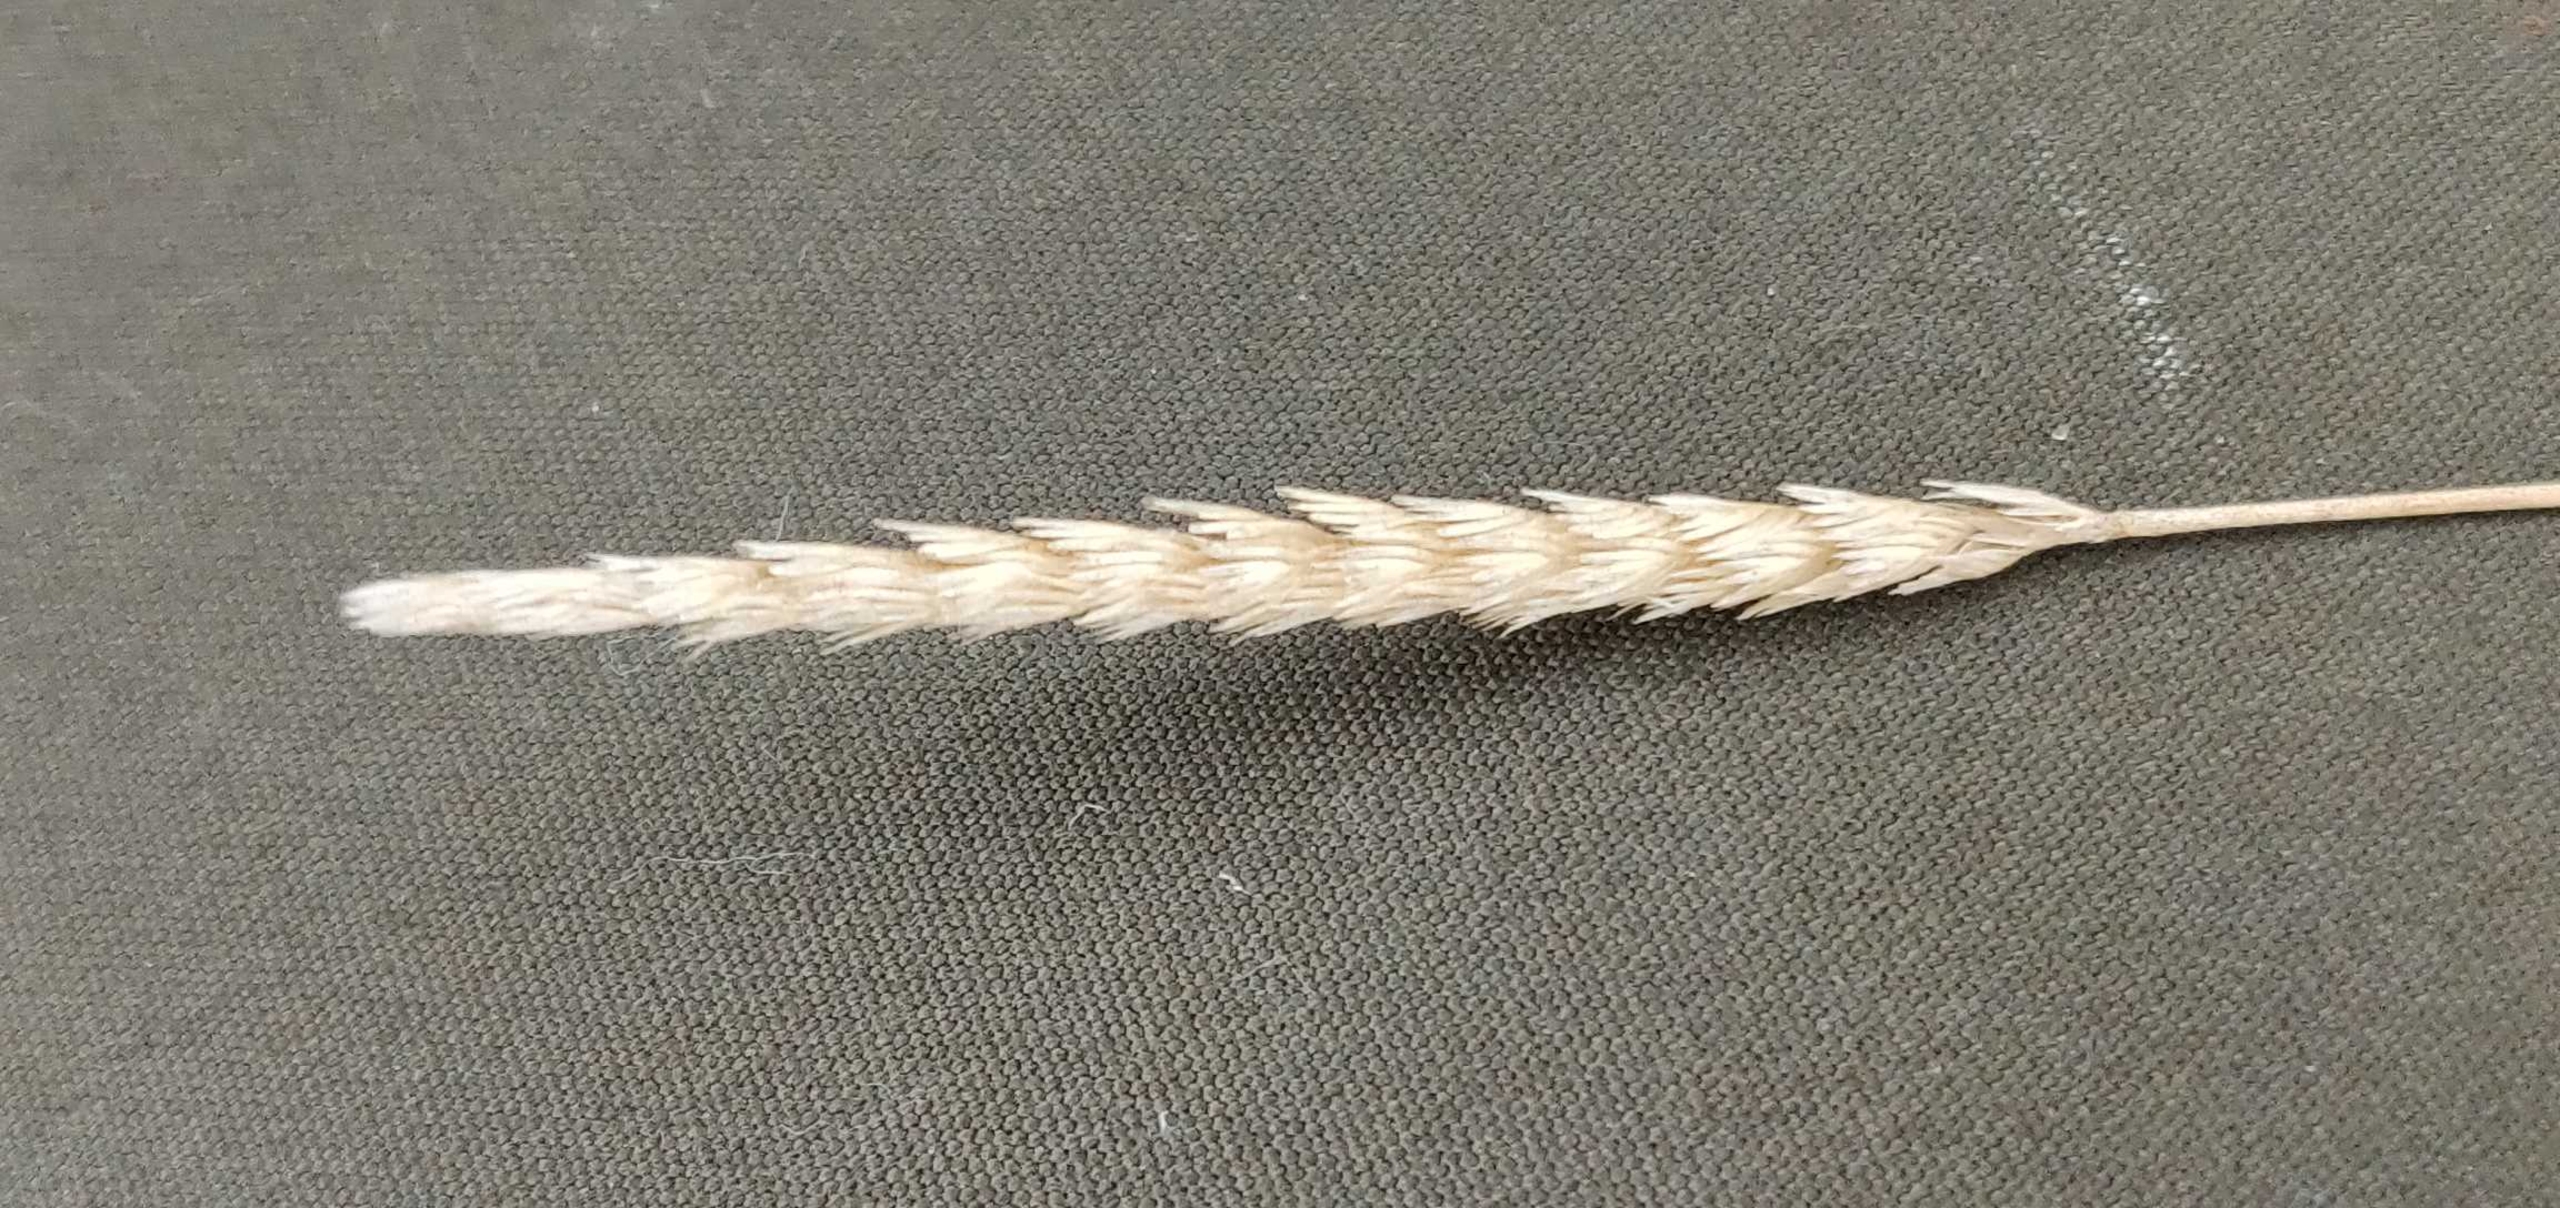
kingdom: Plantae
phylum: Tracheophyta
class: Liliopsida
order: Poales
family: Poaceae
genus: Cynosurus
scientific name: Cynosurus cristatus
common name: Kamgræs
